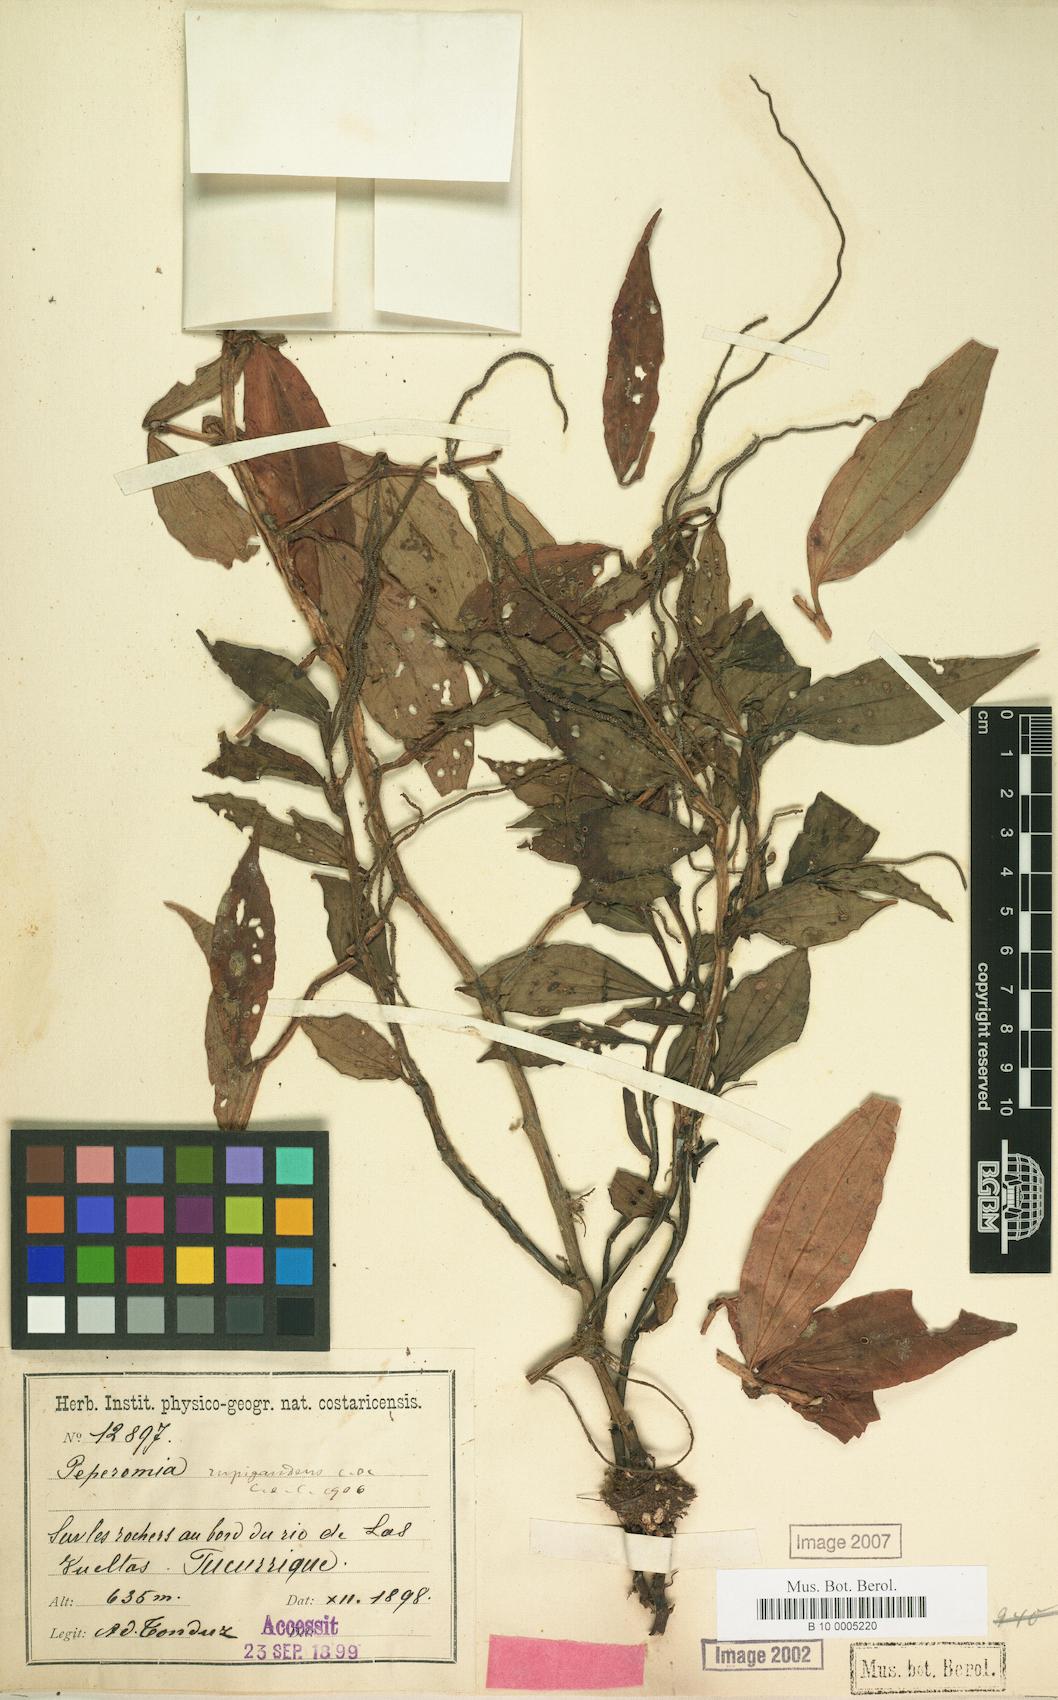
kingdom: Plantae
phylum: Tracheophyta
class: Magnoliopsida
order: Piperales
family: Piperaceae
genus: Peperomia
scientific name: Peperomia rupigaudens
